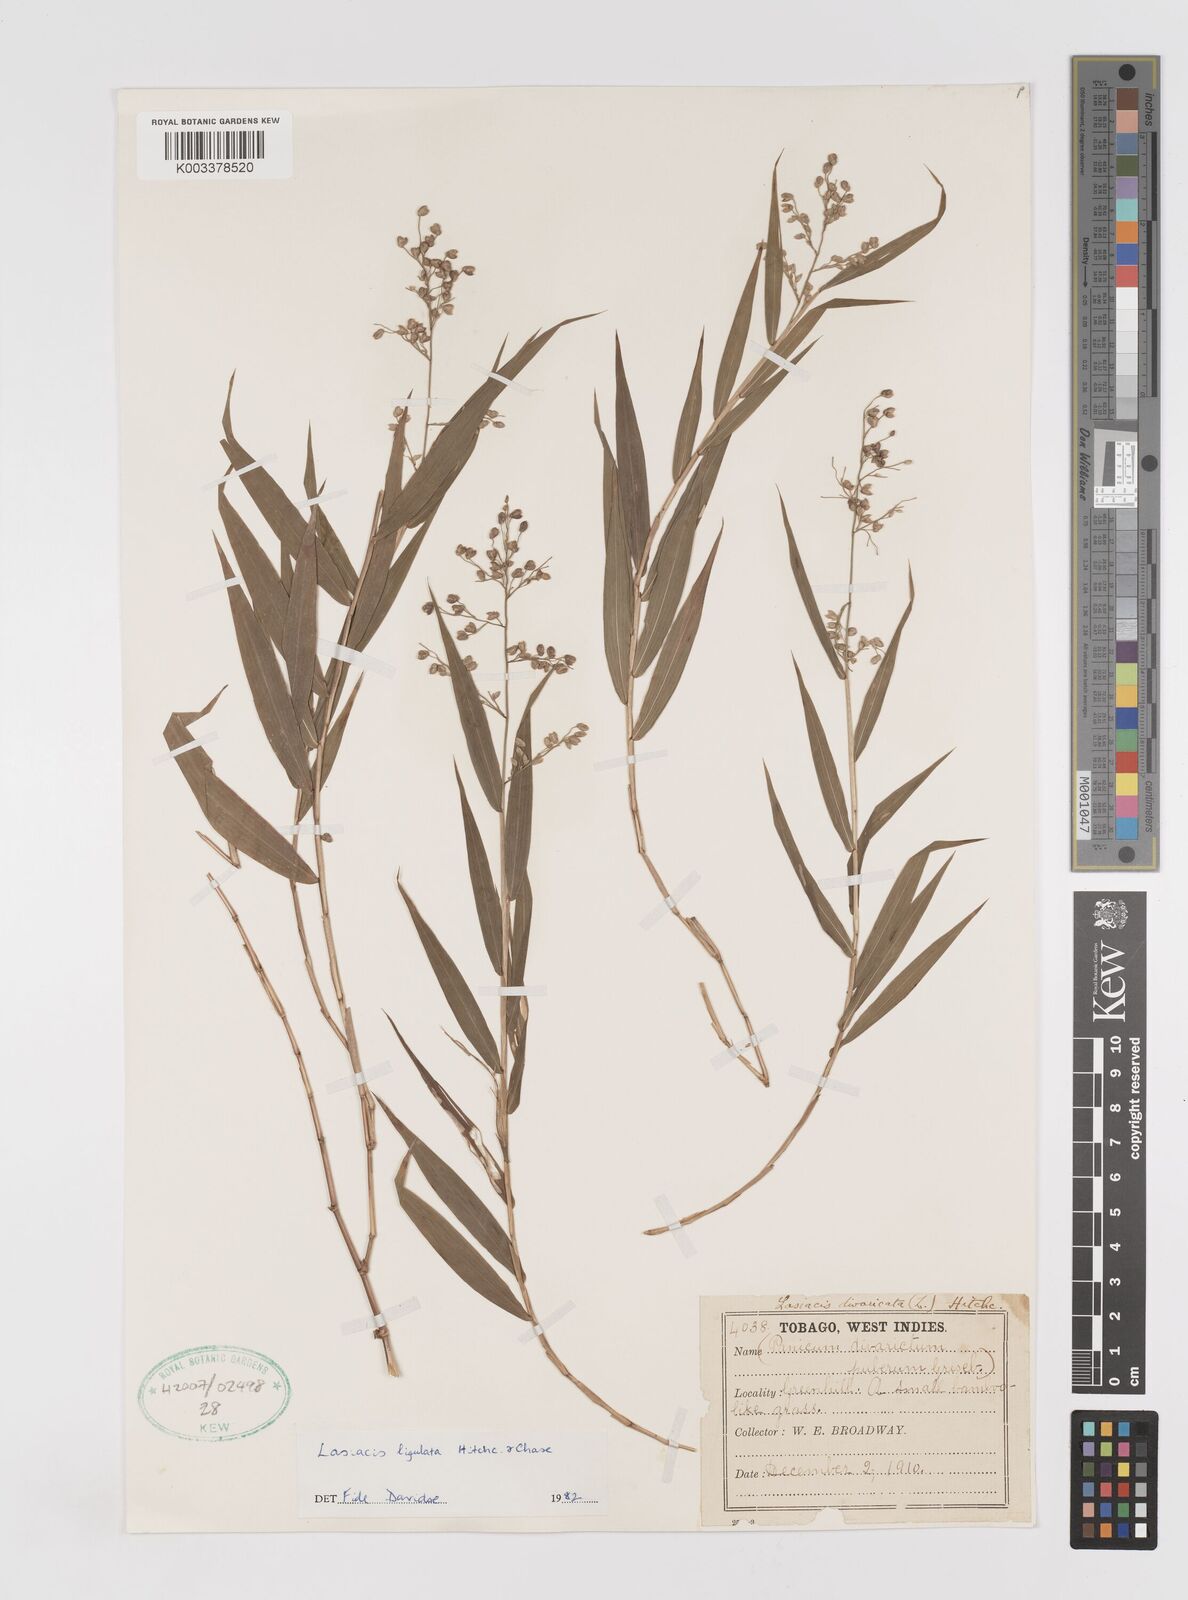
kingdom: Plantae
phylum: Tracheophyta
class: Liliopsida
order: Poales
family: Poaceae
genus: Lasiacis
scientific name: Lasiacis ligulata
